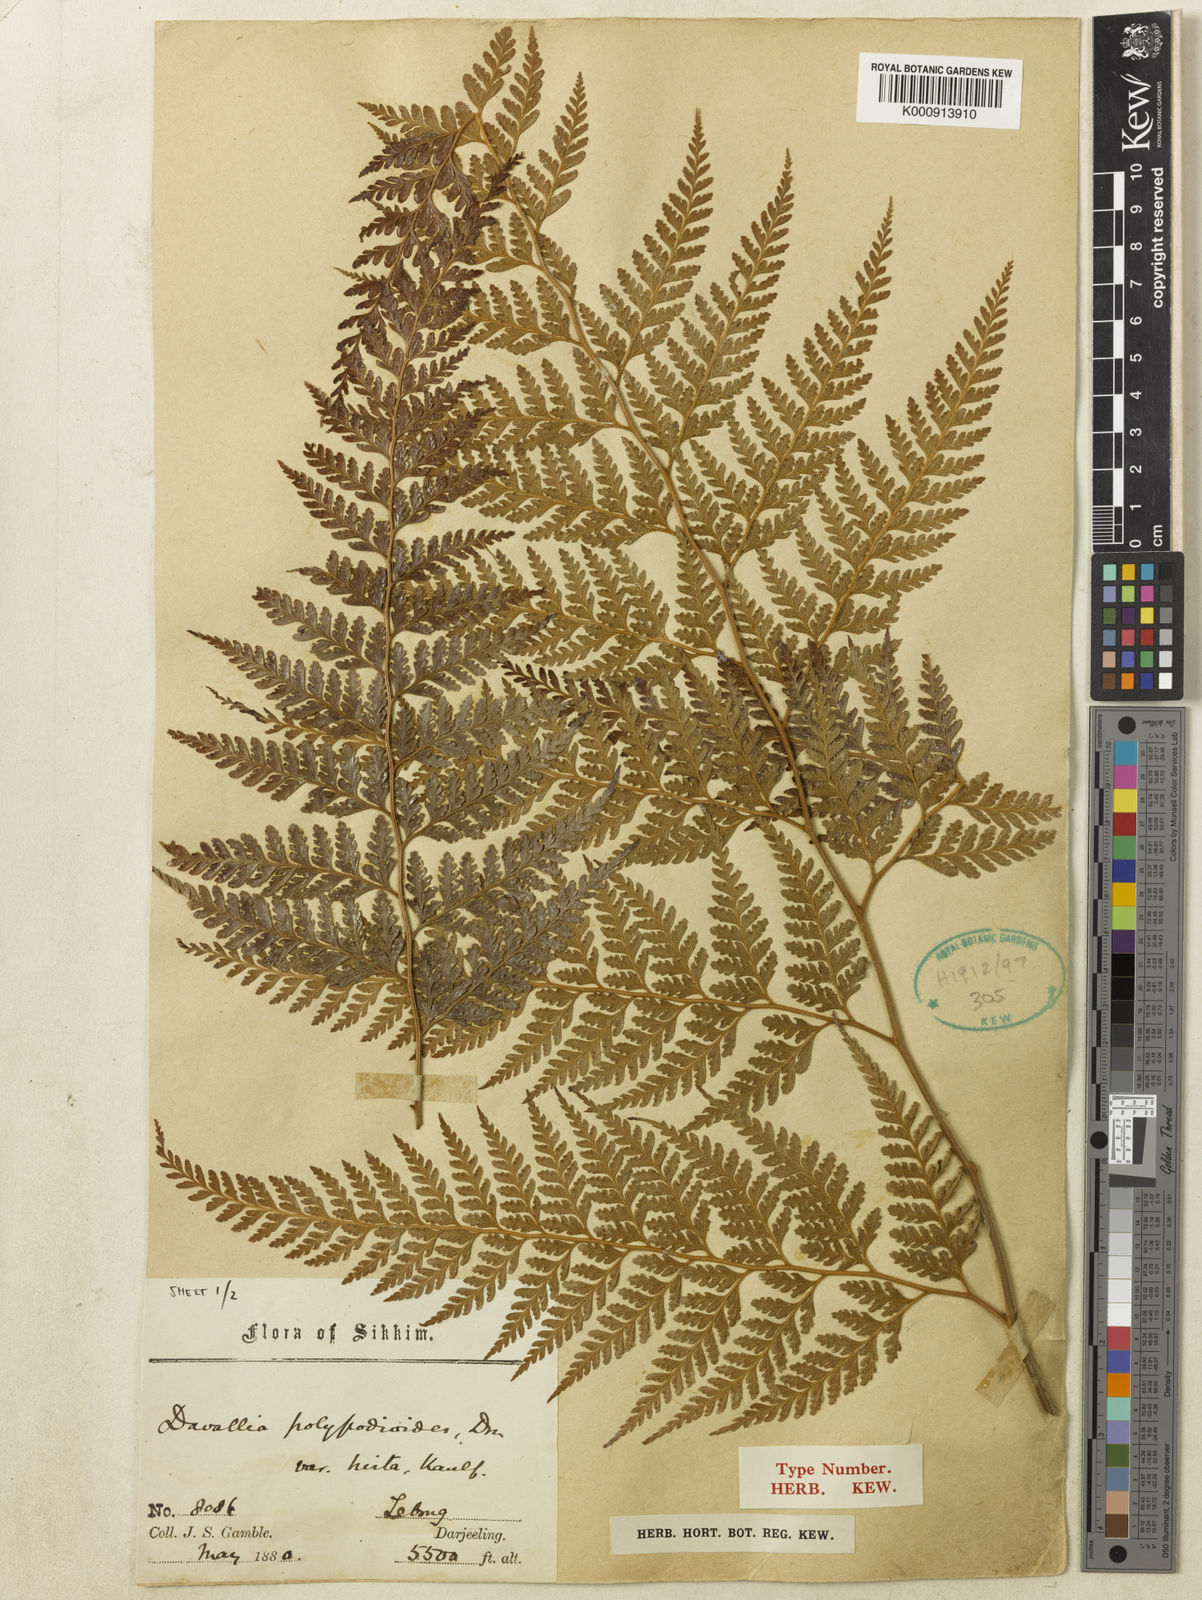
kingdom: Plantae
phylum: Tracheophyta
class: Polypodiopsida
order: Polypodiales
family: Dennstaedtiaceae
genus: Microlepia
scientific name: Microlepia firma
